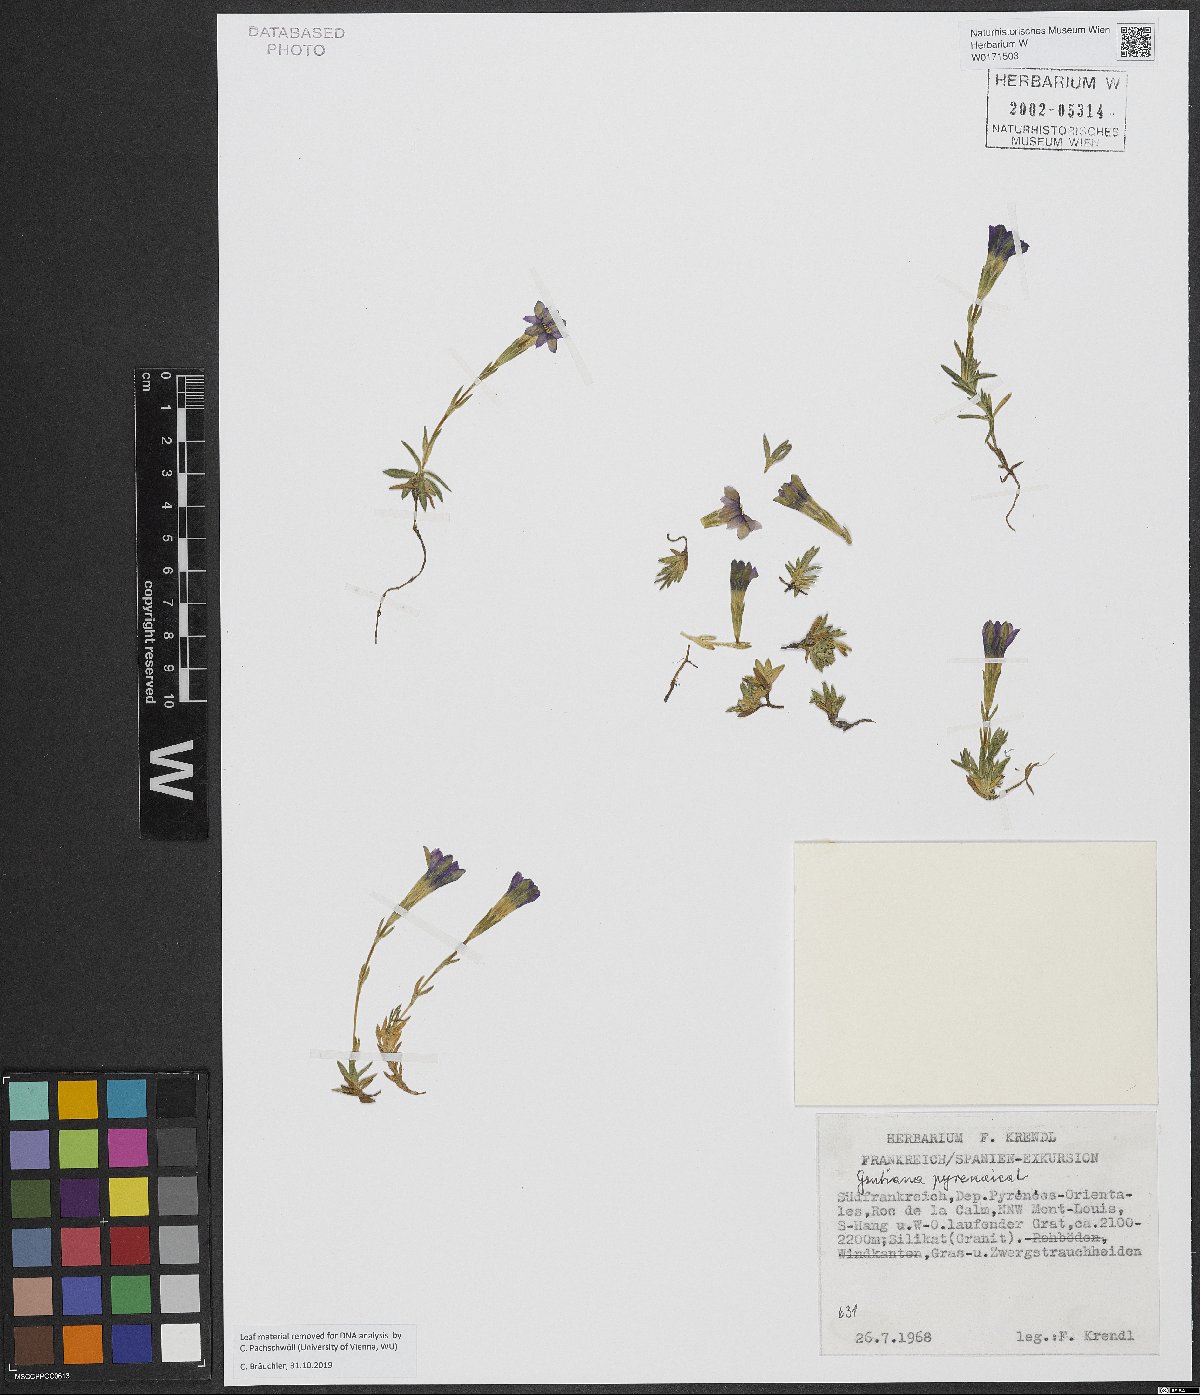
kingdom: Plantae
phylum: Tracheophyta
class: Magnoliopsida
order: Gentianales
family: Gentianaceae
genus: Gentiana
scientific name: Gentiana pyrenaica
